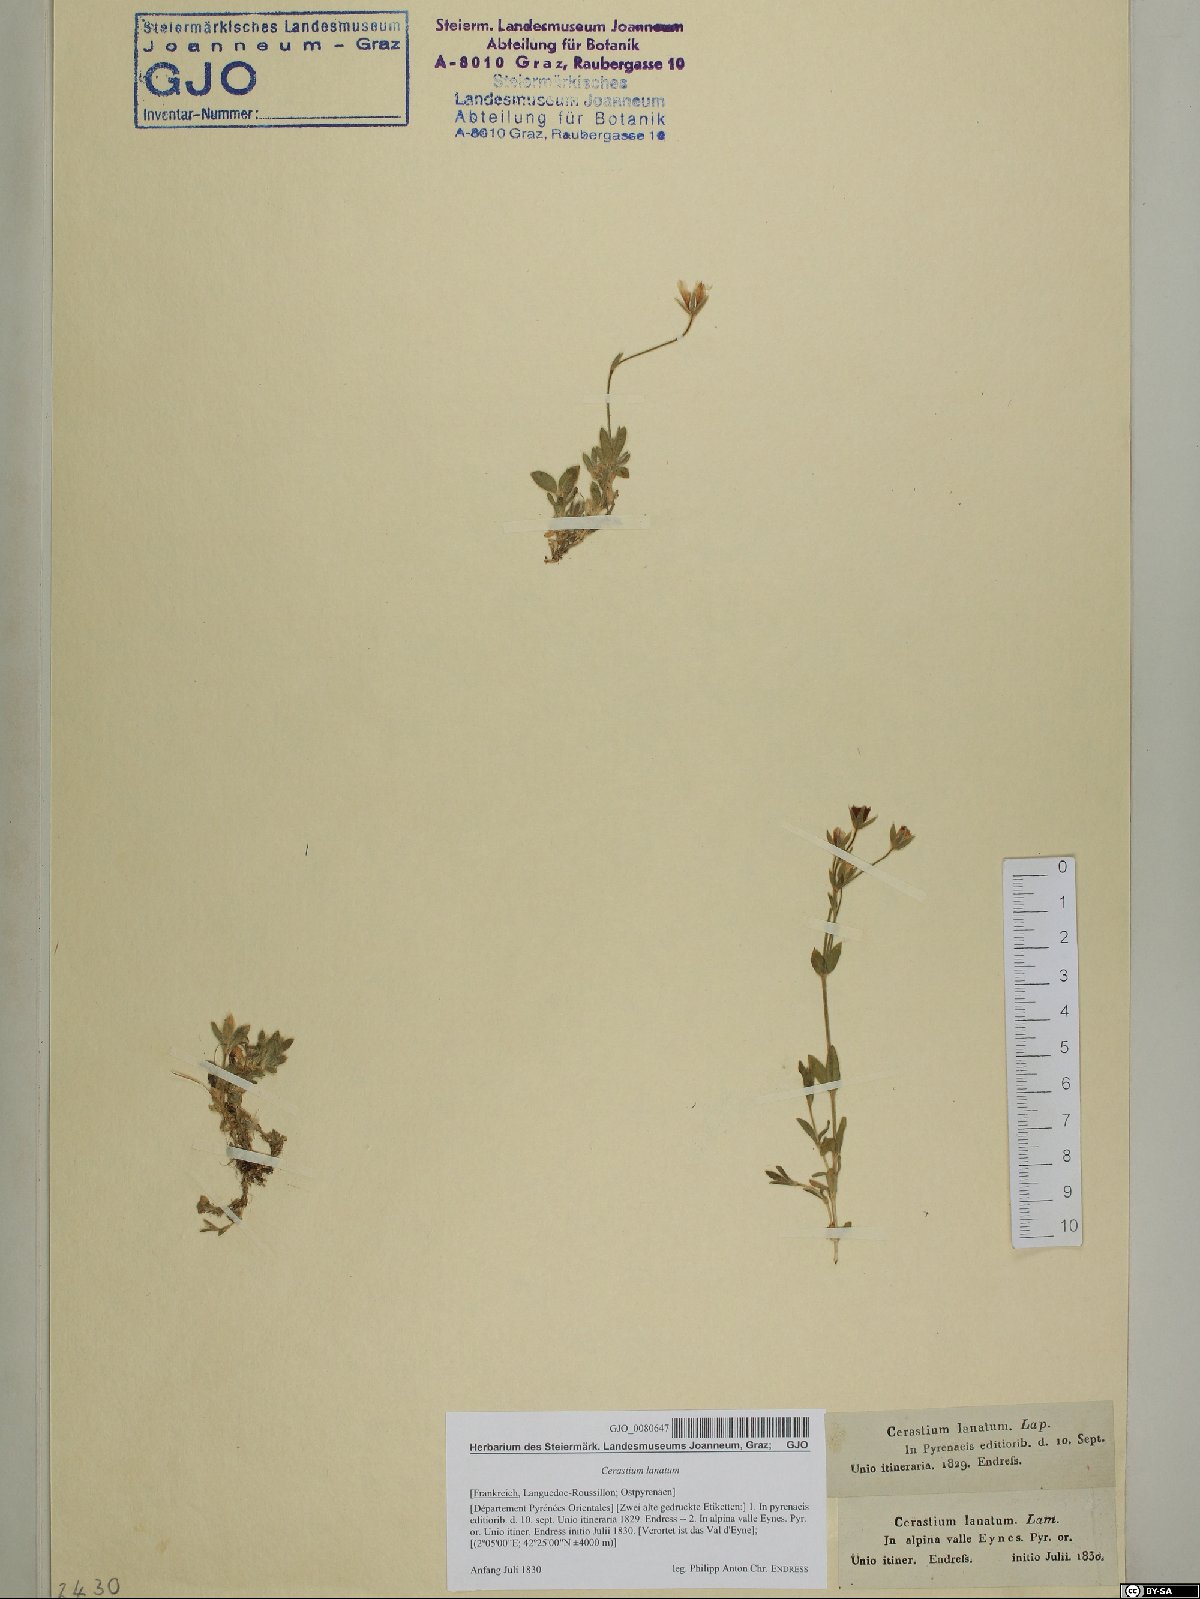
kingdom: Plantae
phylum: Tracheophyta
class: Magnoliopsida
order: Caryophyllales
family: Caryophyllaceae
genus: Cerastium
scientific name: Cerastium alpinum
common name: Alpine mouse-ear
